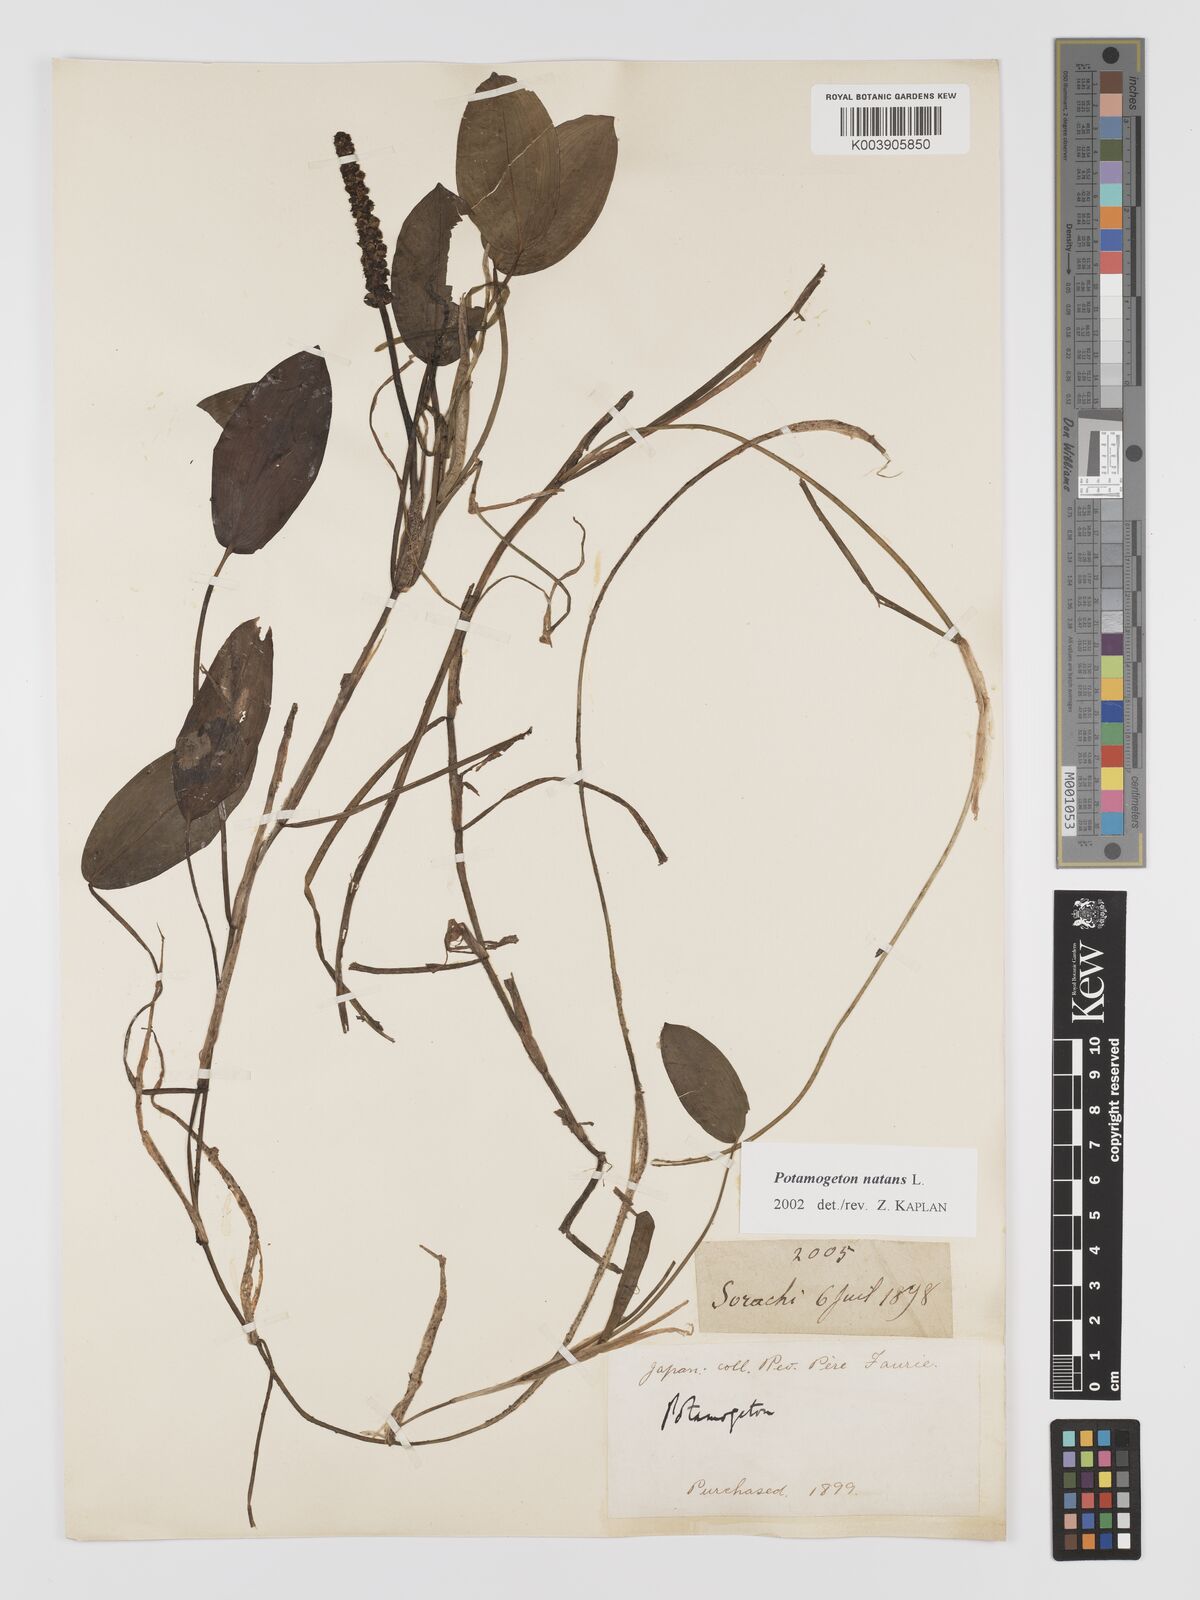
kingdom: Plantae
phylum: Tracheophyta
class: Liliopsida
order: Alismatales
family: Potamogetonaceae
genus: Potamogeton
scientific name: Potamogeton natans
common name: Broad-leaved pondweed
